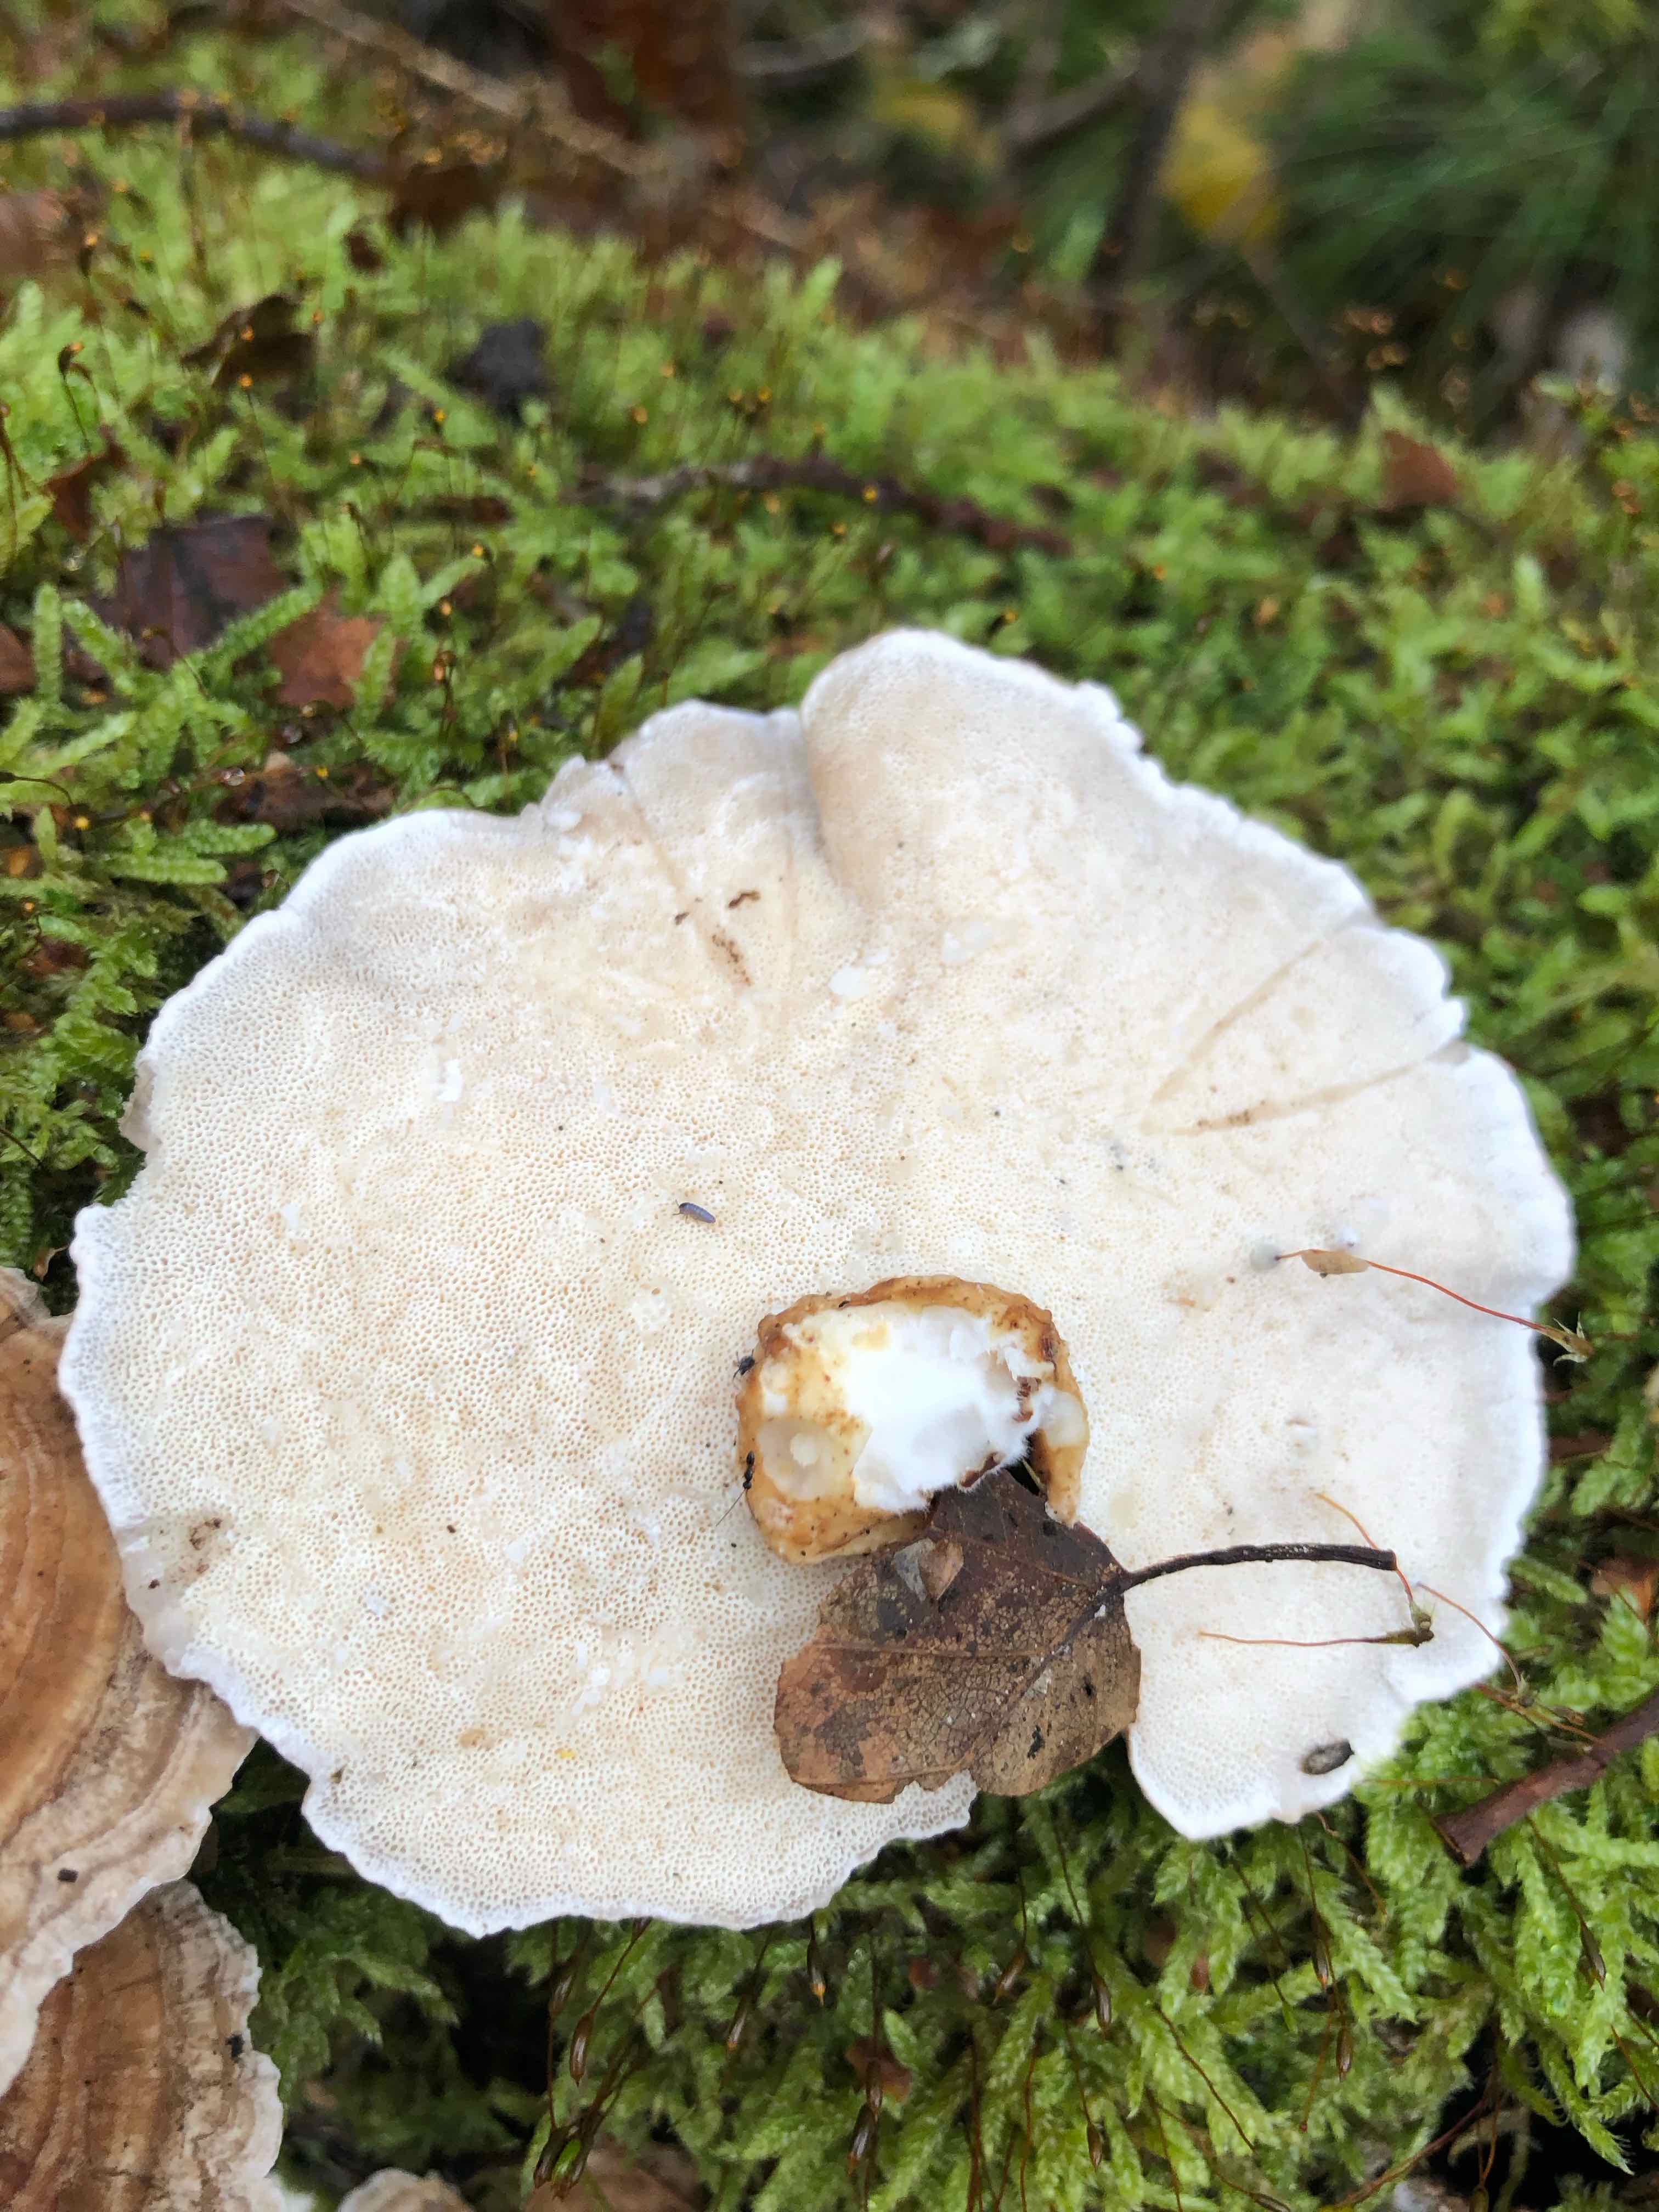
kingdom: Fungi
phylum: Basidiomycota
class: Agaricomycetes
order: Polyporales
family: Polyporaceae
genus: Trametes
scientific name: Trametes ochracea
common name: bæltet læderporesvamp
